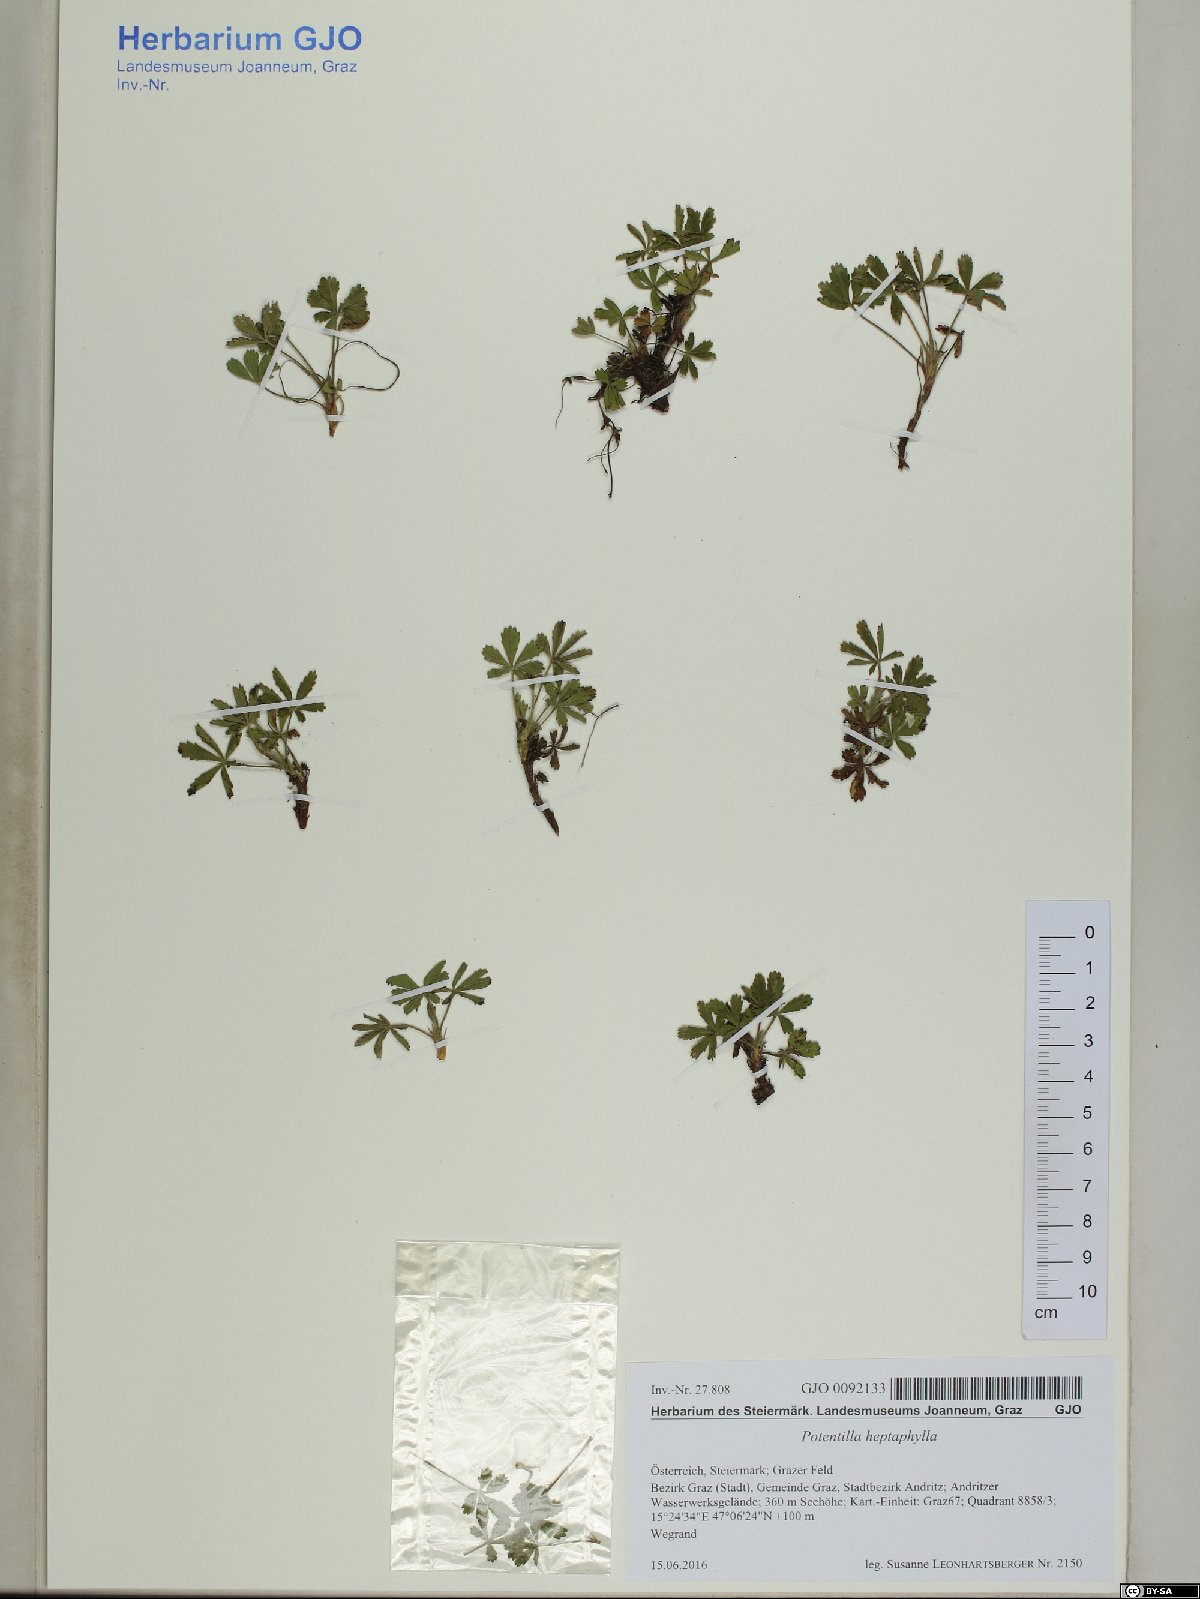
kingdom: Plantae
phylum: Tracheophyta
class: Magnoliopsida
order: Rosales
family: Rosaceae
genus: Potentilla
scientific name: Potentilla heptaphylla
